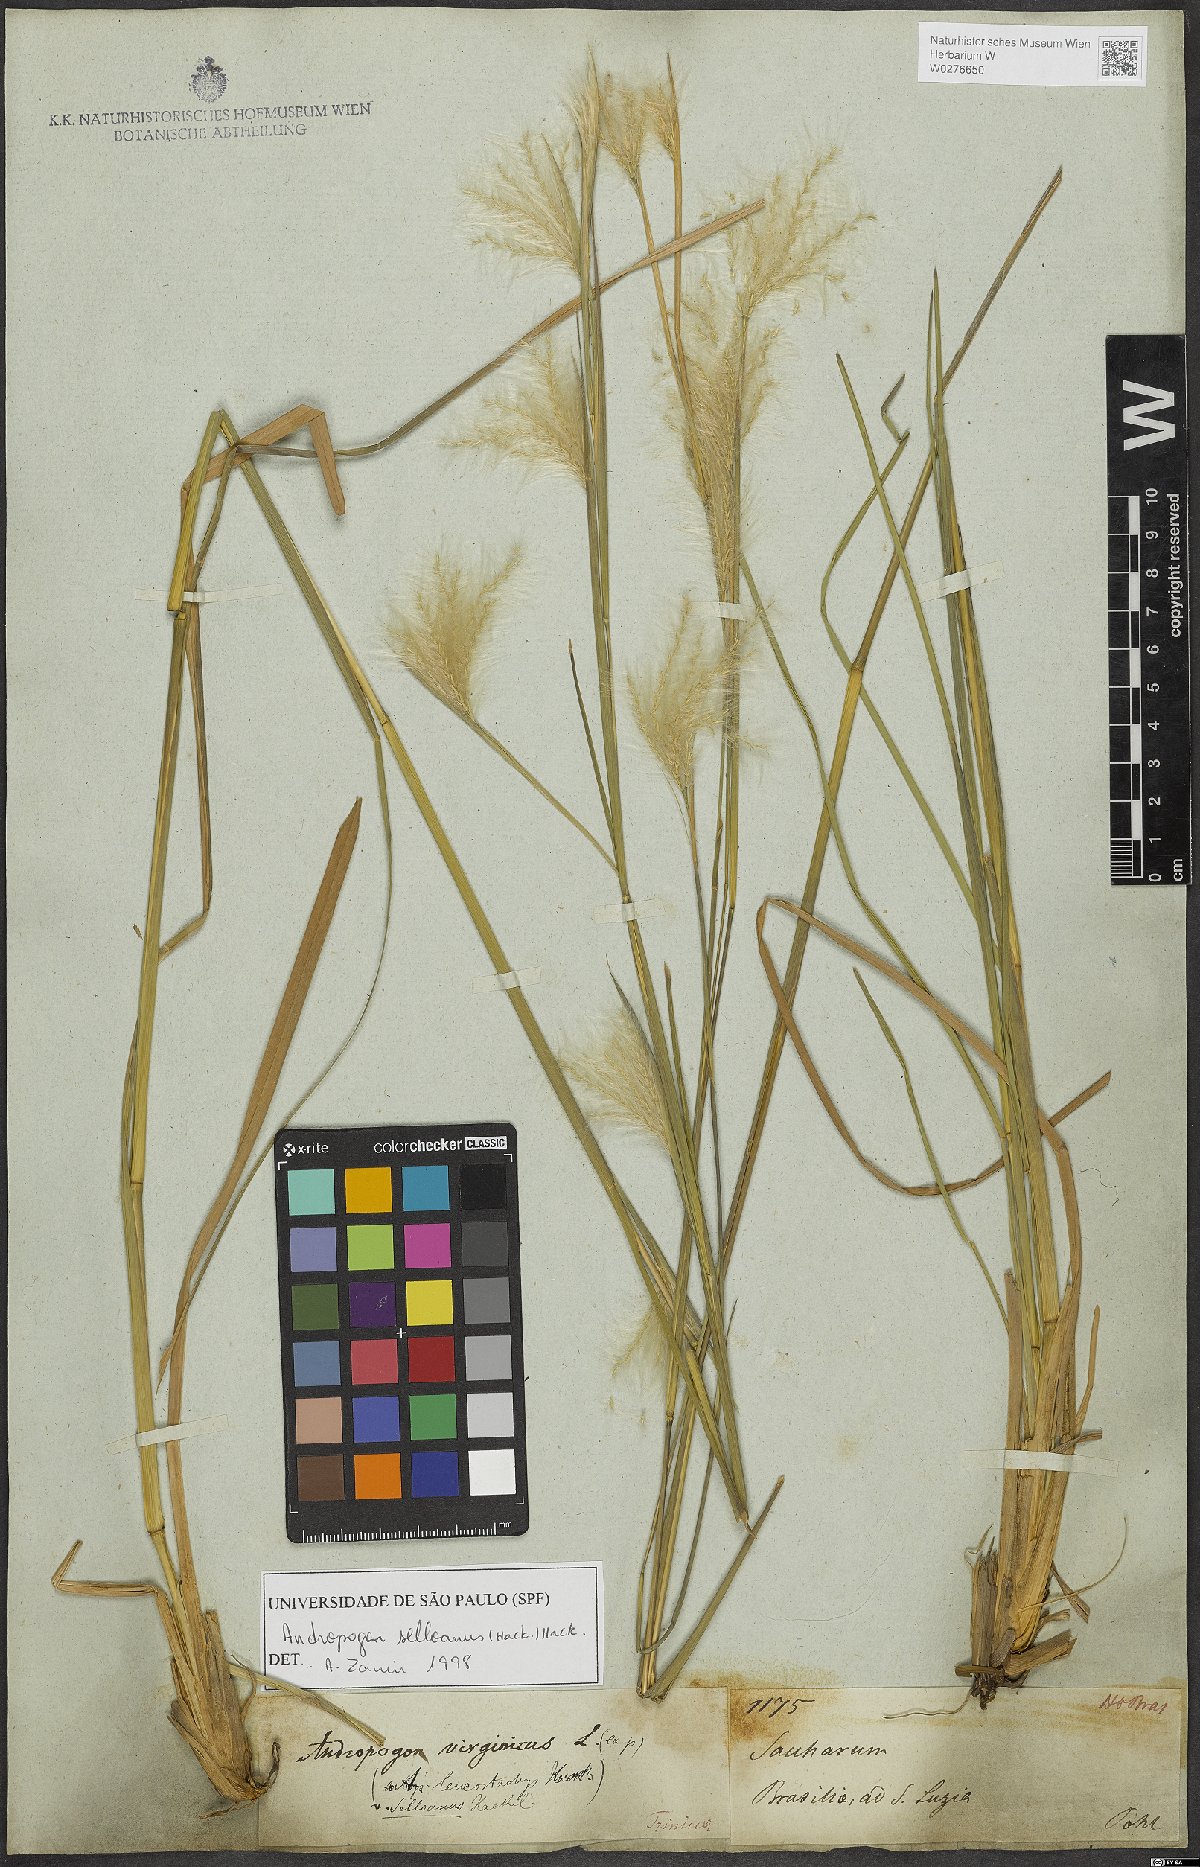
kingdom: Plantae
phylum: Tracheophyta
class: Liliopsida
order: Poales
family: Poaceae
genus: Andropogon
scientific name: Andropogon selloanus
